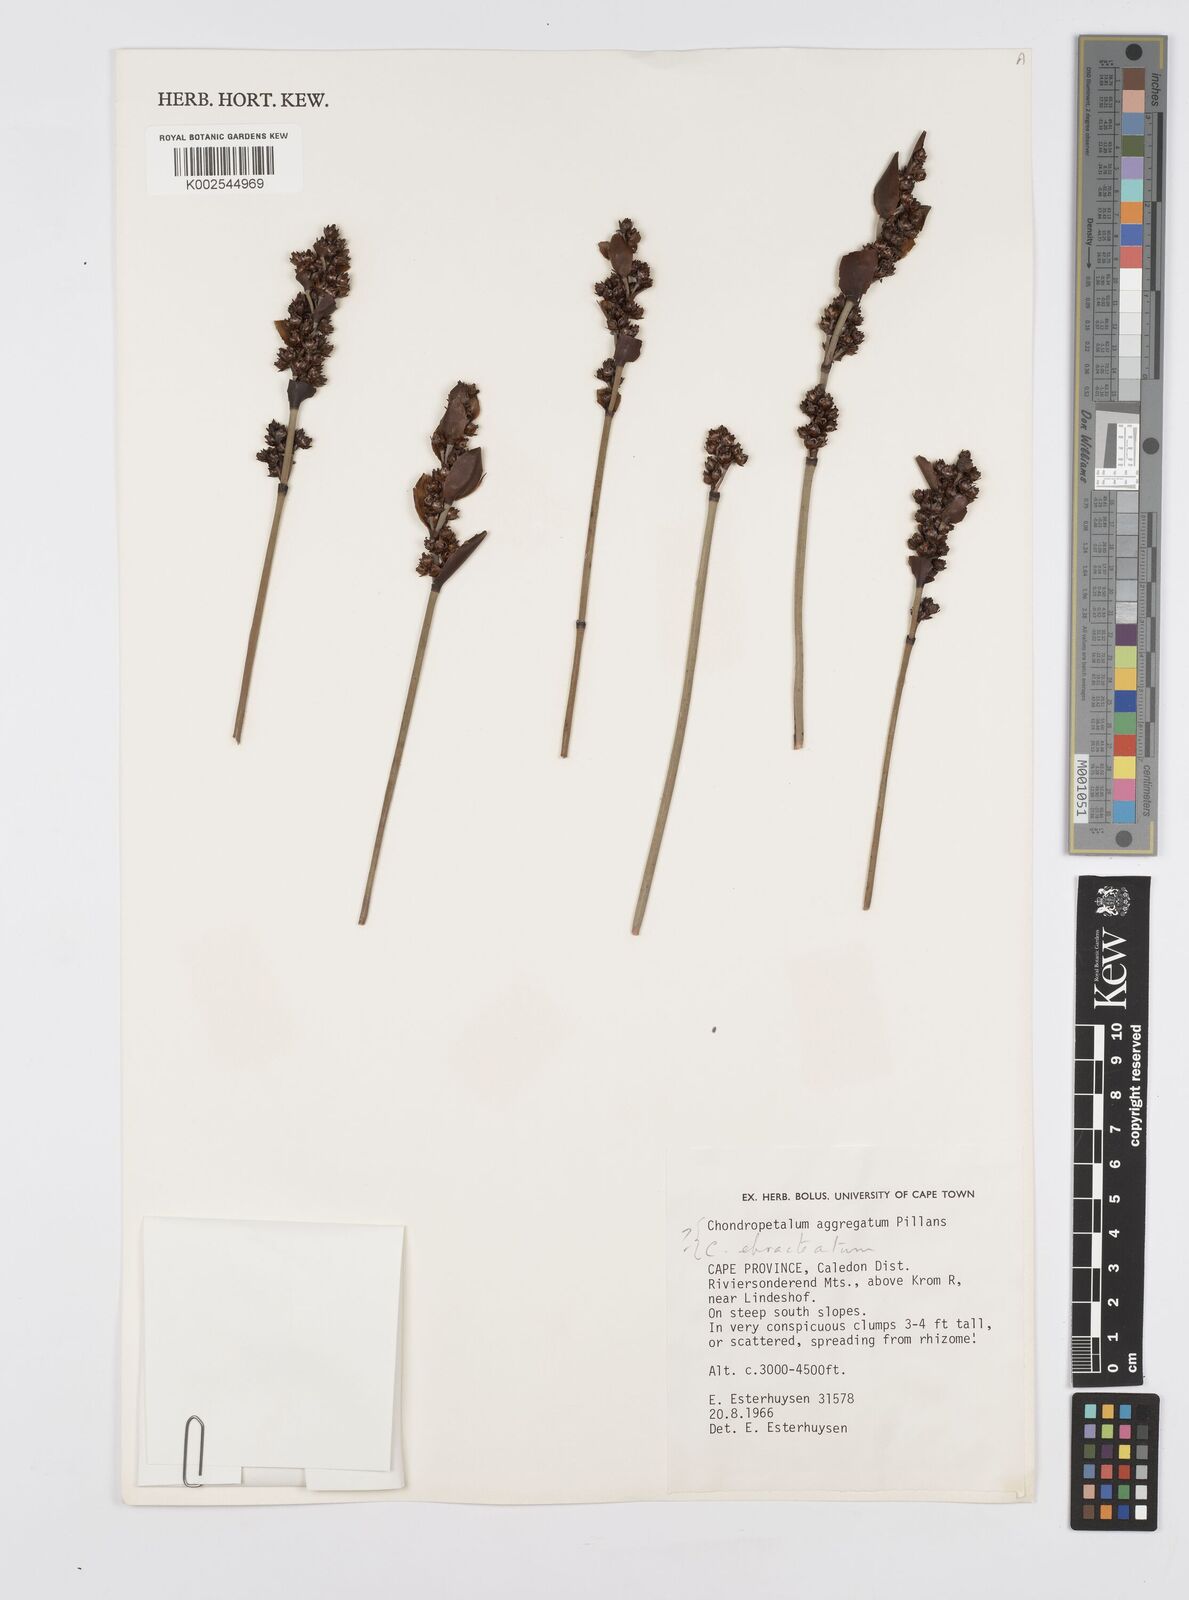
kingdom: Plantae
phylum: Tracheophyta
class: Liliopsida
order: Poales
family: Restionaceae
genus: Elegia
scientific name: Elegia aggregata
